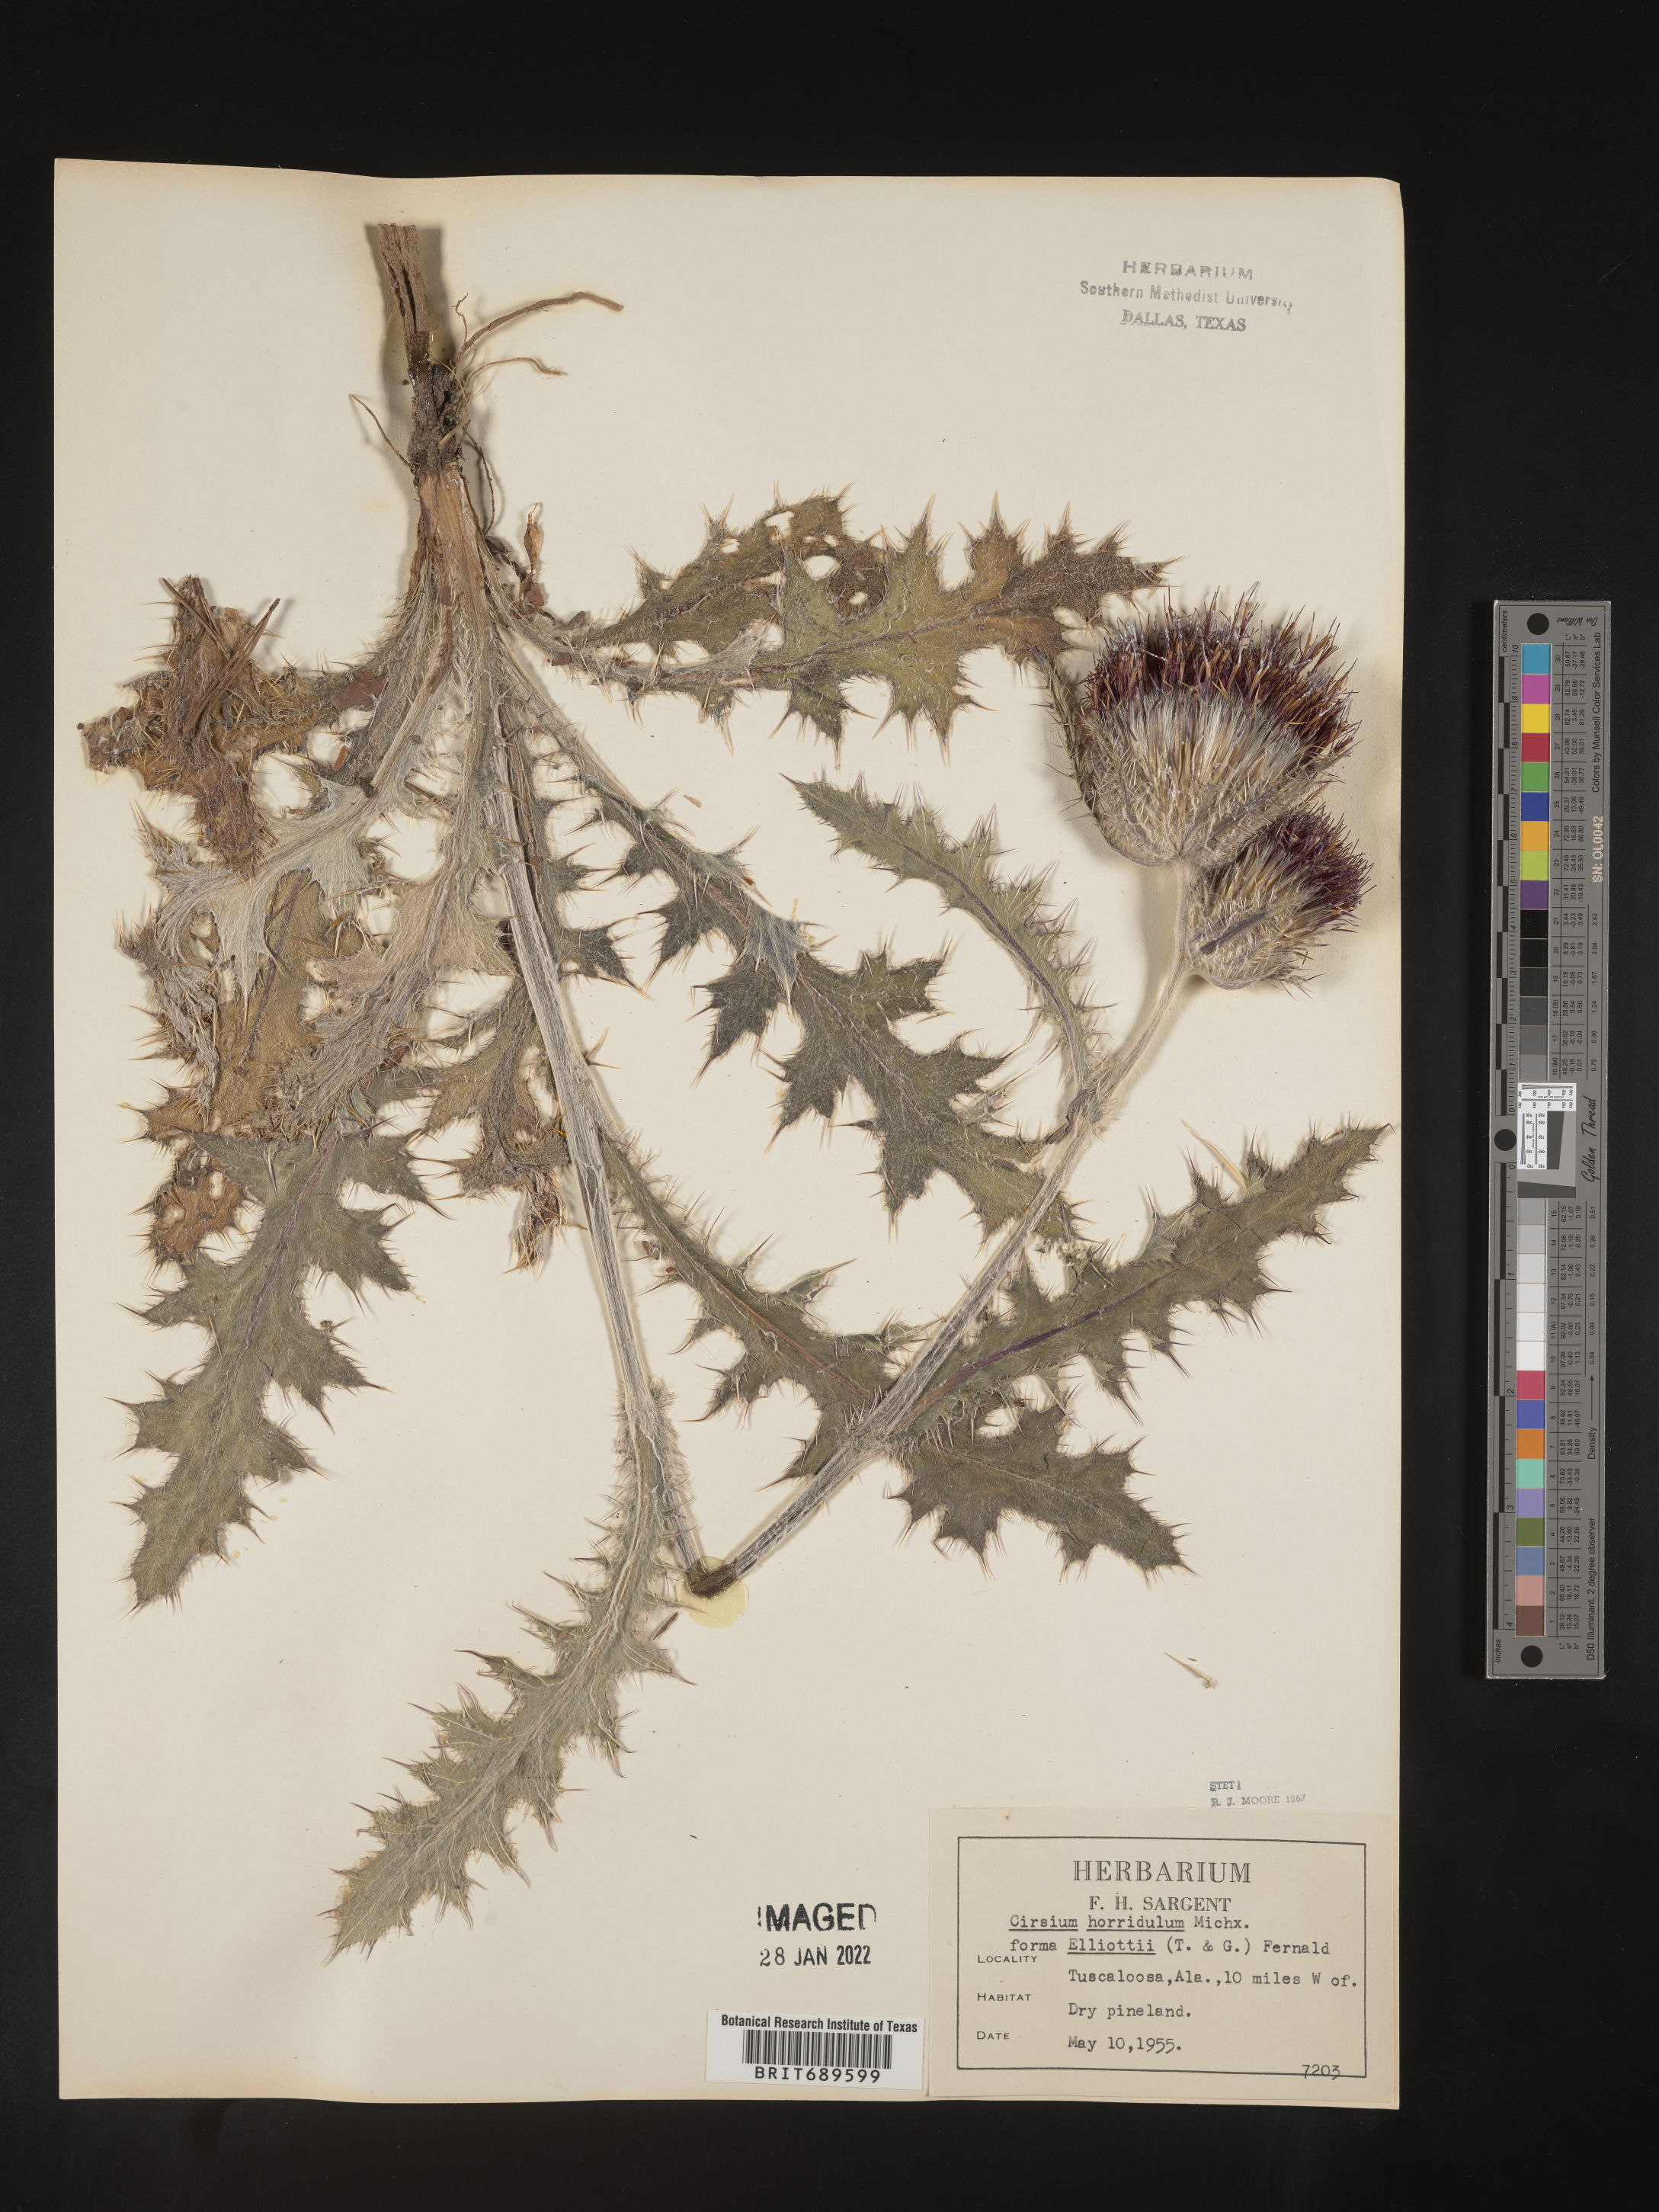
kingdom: Plantae
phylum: Tracheophyta
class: Magnoliopsida
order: Asterales
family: Asteraceae
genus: Cirsium
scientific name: Cirsium horridulum
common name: Bristly thistle
